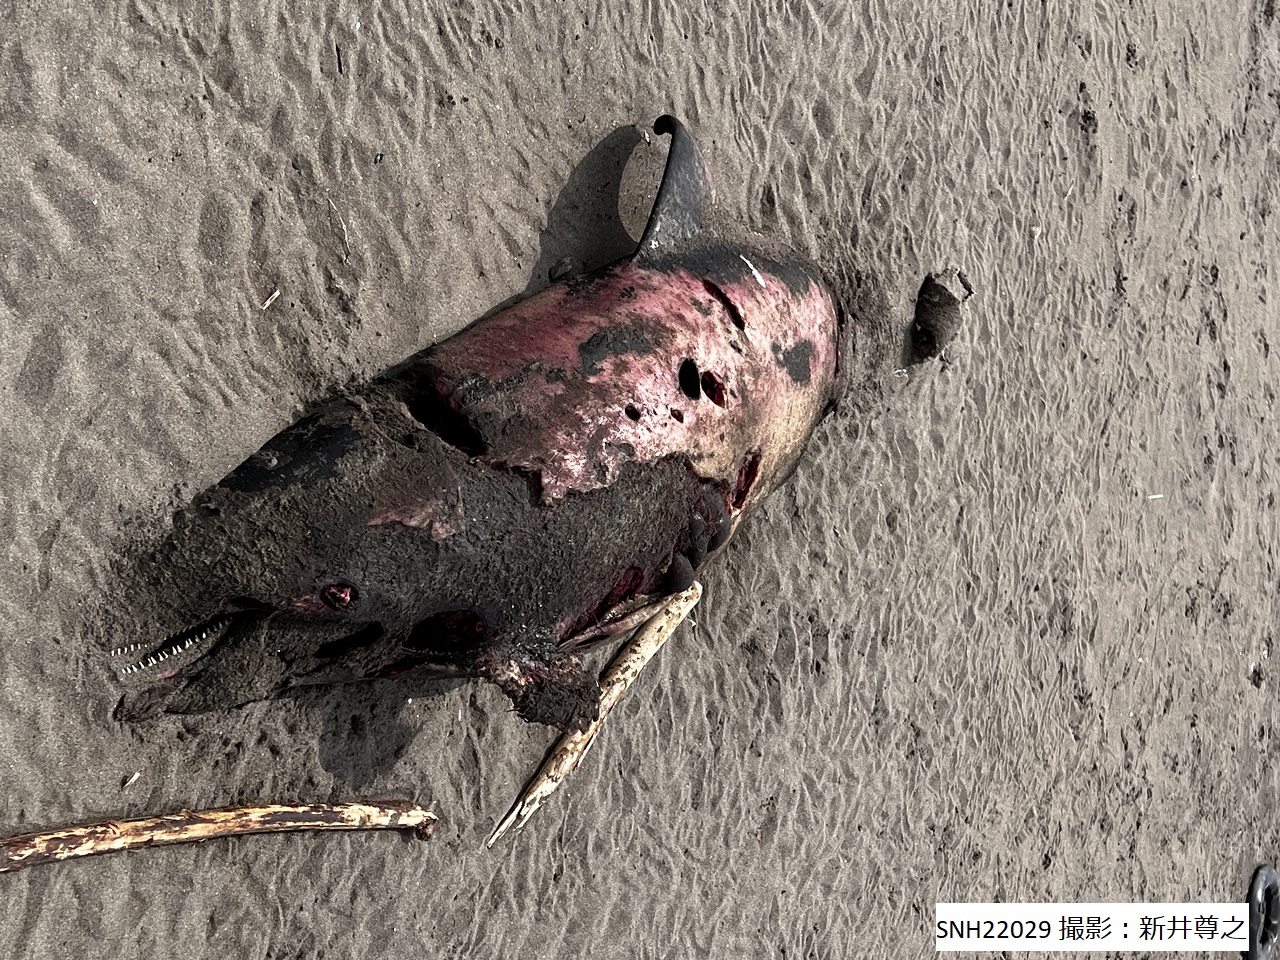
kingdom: Animalia
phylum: Chordata
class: Mammalia
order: Cetacea
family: Delphinidae
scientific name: Delphinidae
